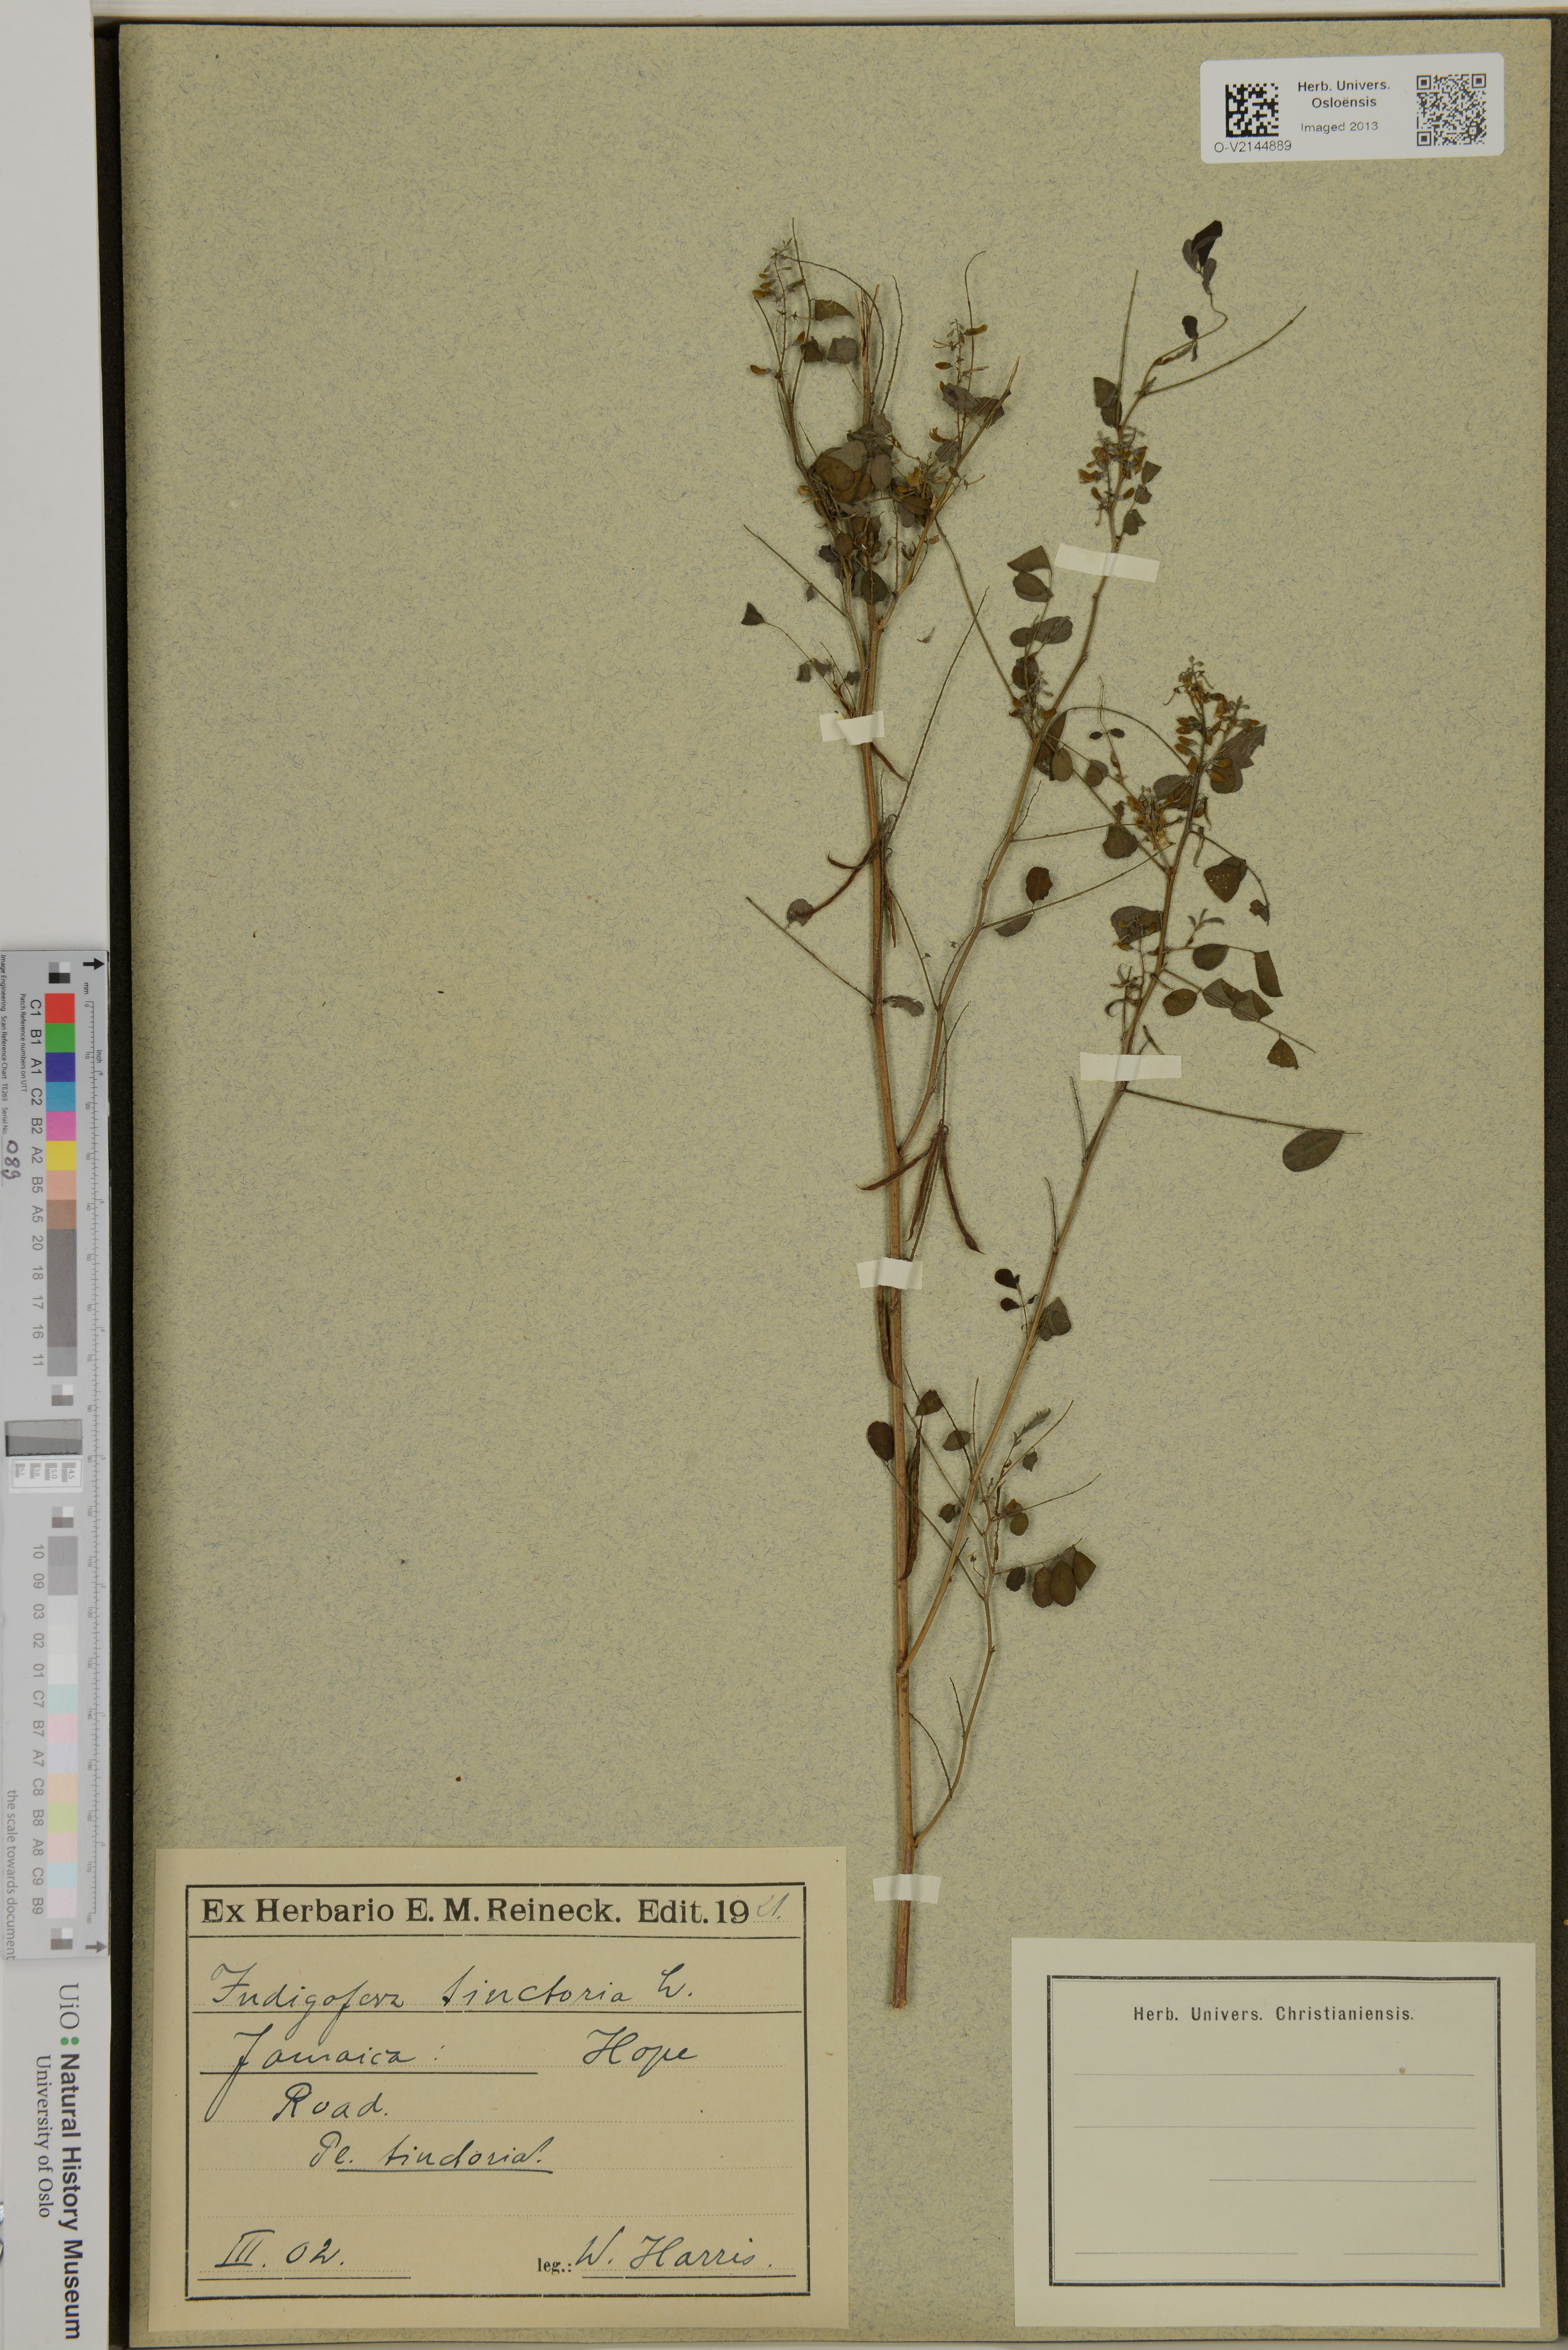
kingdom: Plantae
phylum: Tracheophyta
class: Magnoliopsida
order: Fabales
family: Fabaceae
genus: Indigofera
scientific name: Indigofera tinctoria
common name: True indigo
